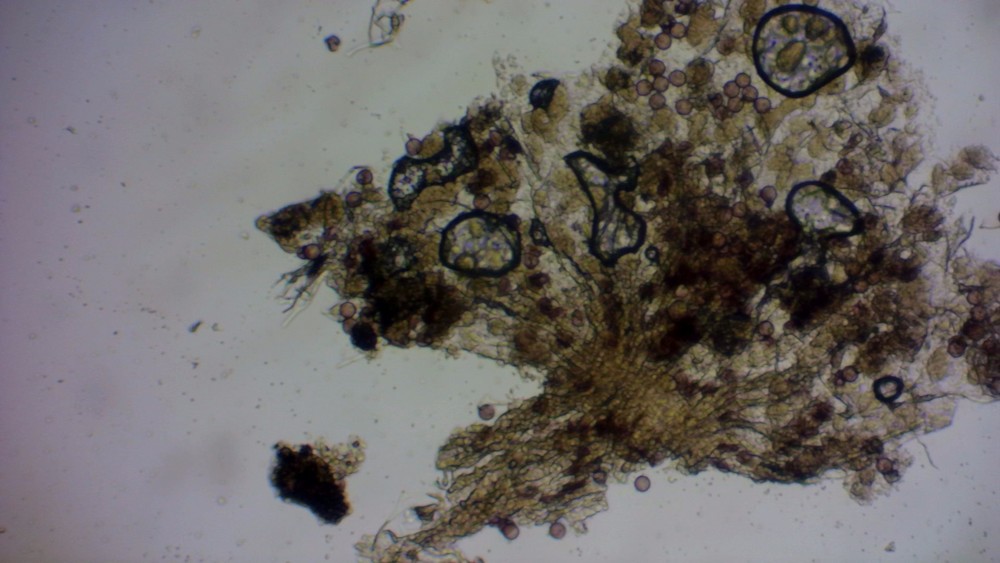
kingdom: Protozoa
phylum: Mycetozoa
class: Myxomycetes
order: Physarales
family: Physaraceae
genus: Physarum
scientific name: Physarum
